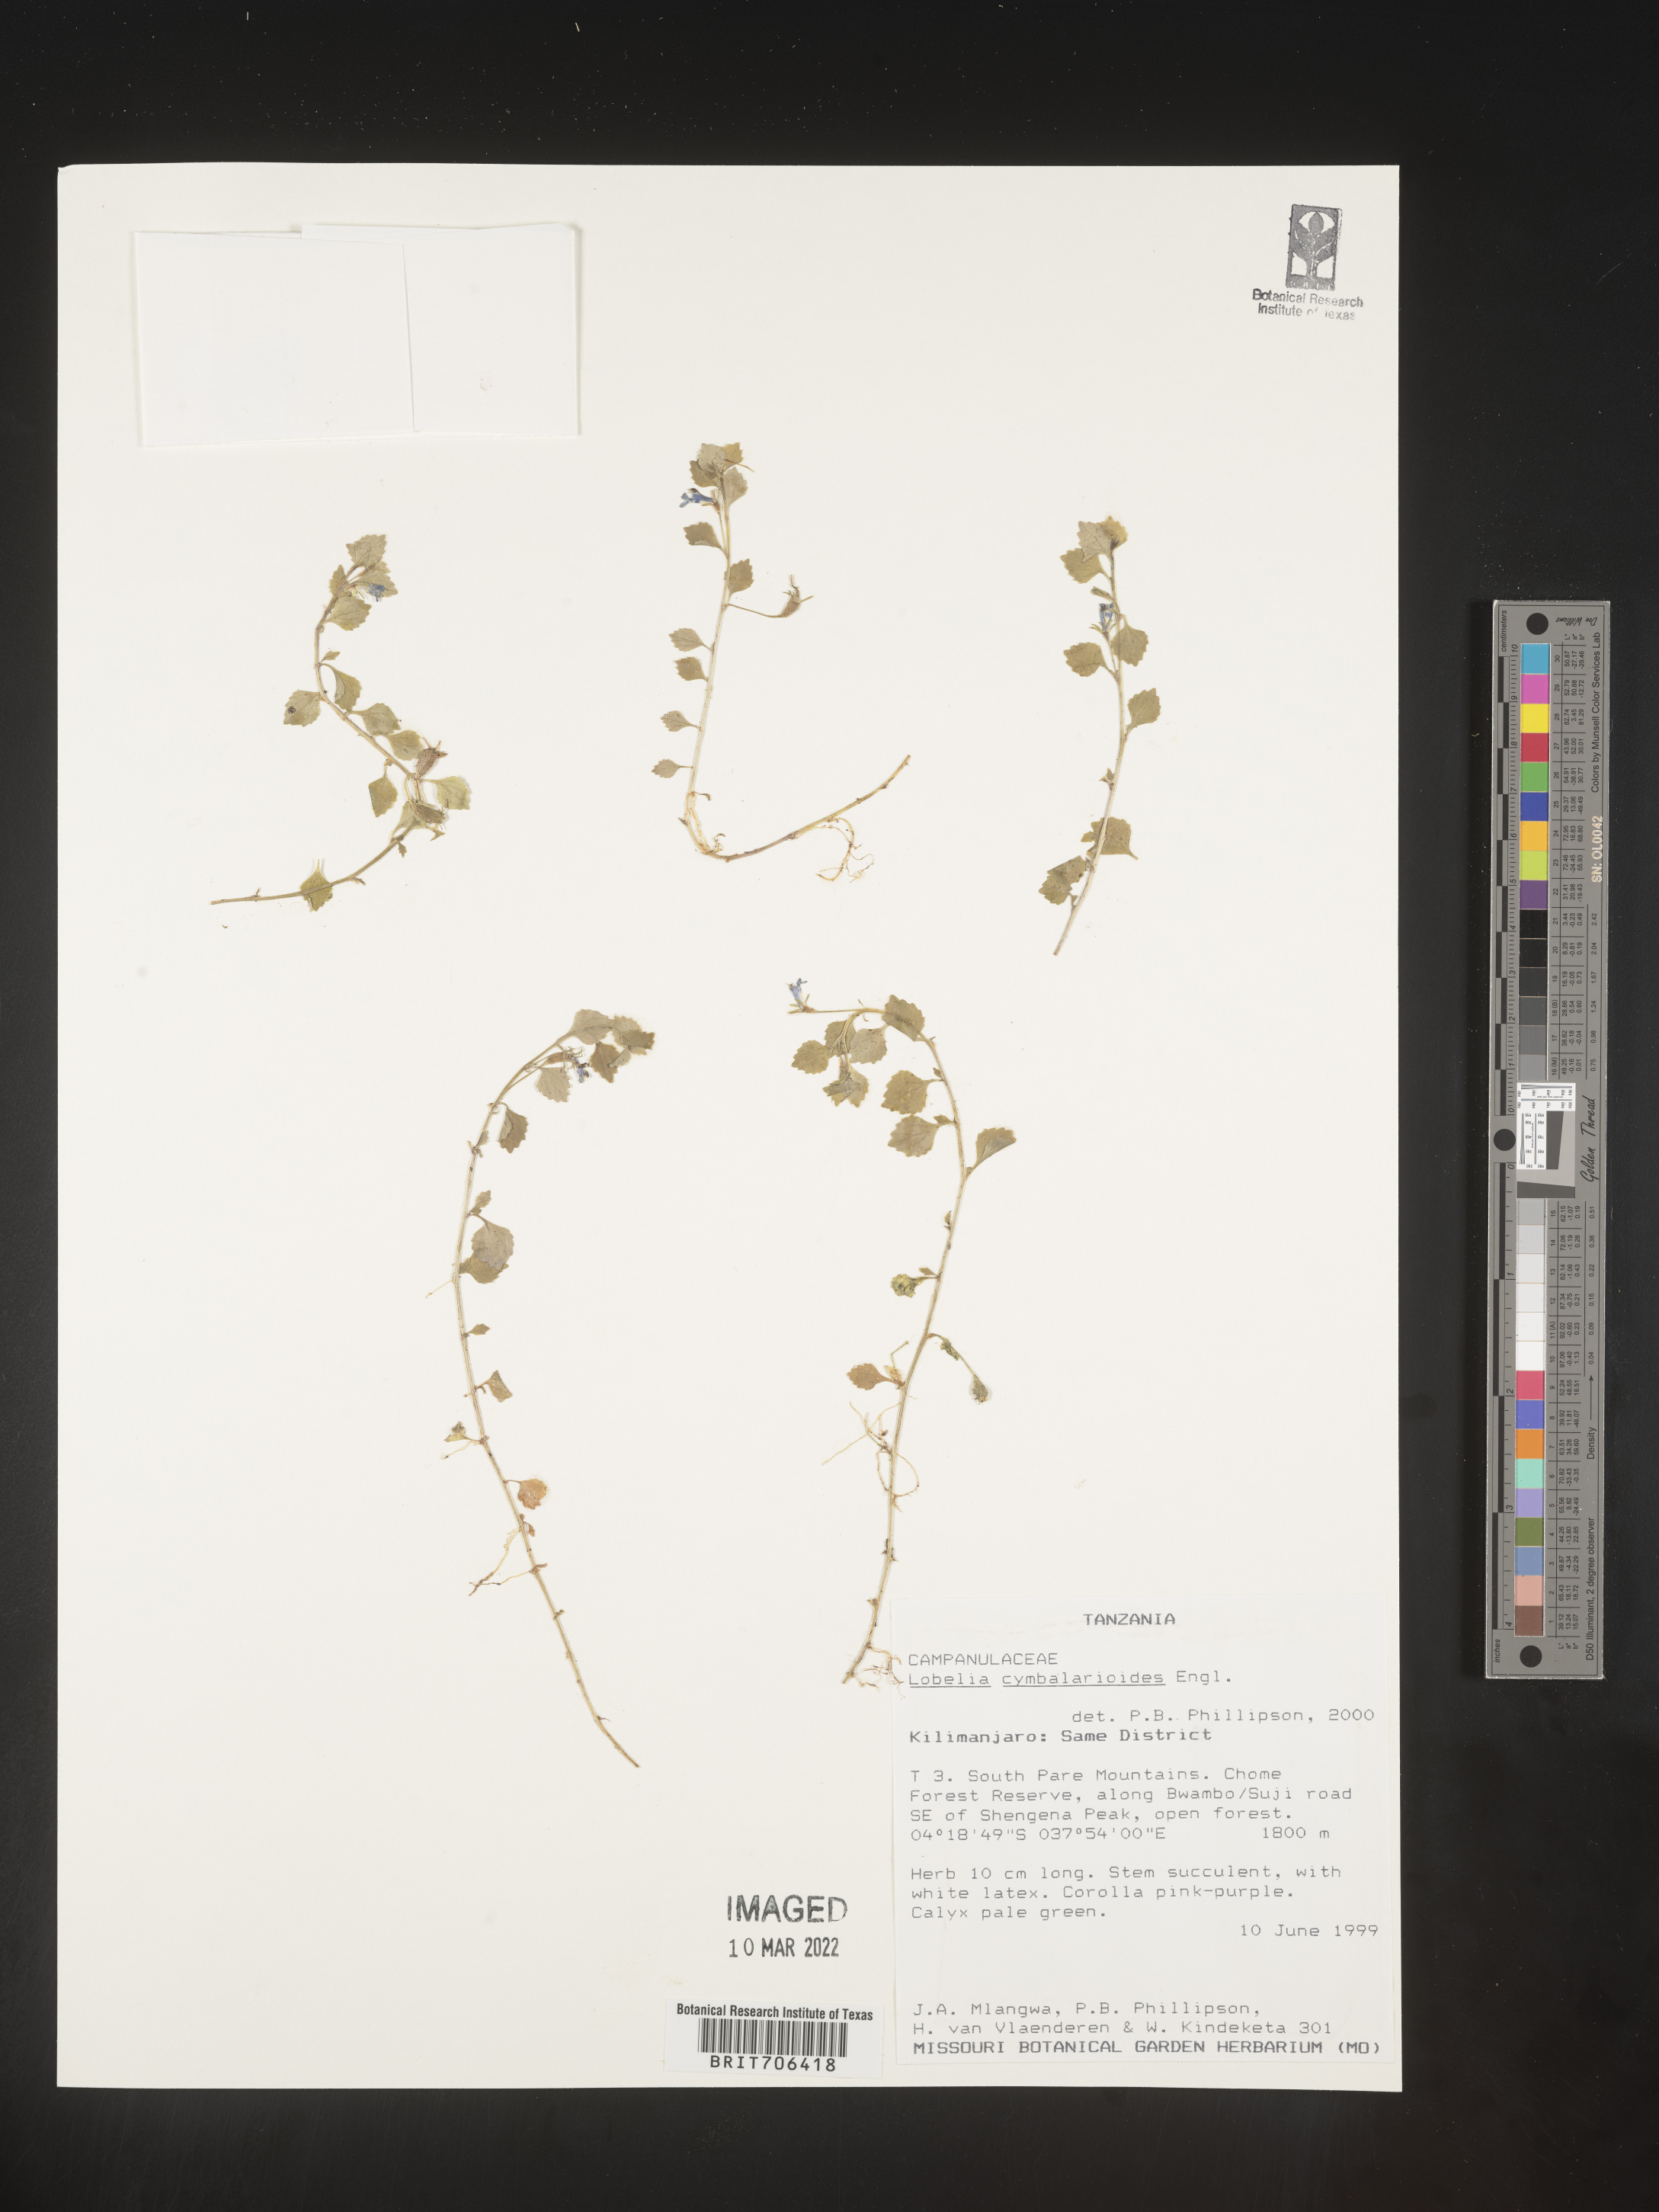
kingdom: Plantae
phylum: Tracheophyta
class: Magnoliopsida
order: Asterales
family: Campanulaceae
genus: Lobelia
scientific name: Lobelia
